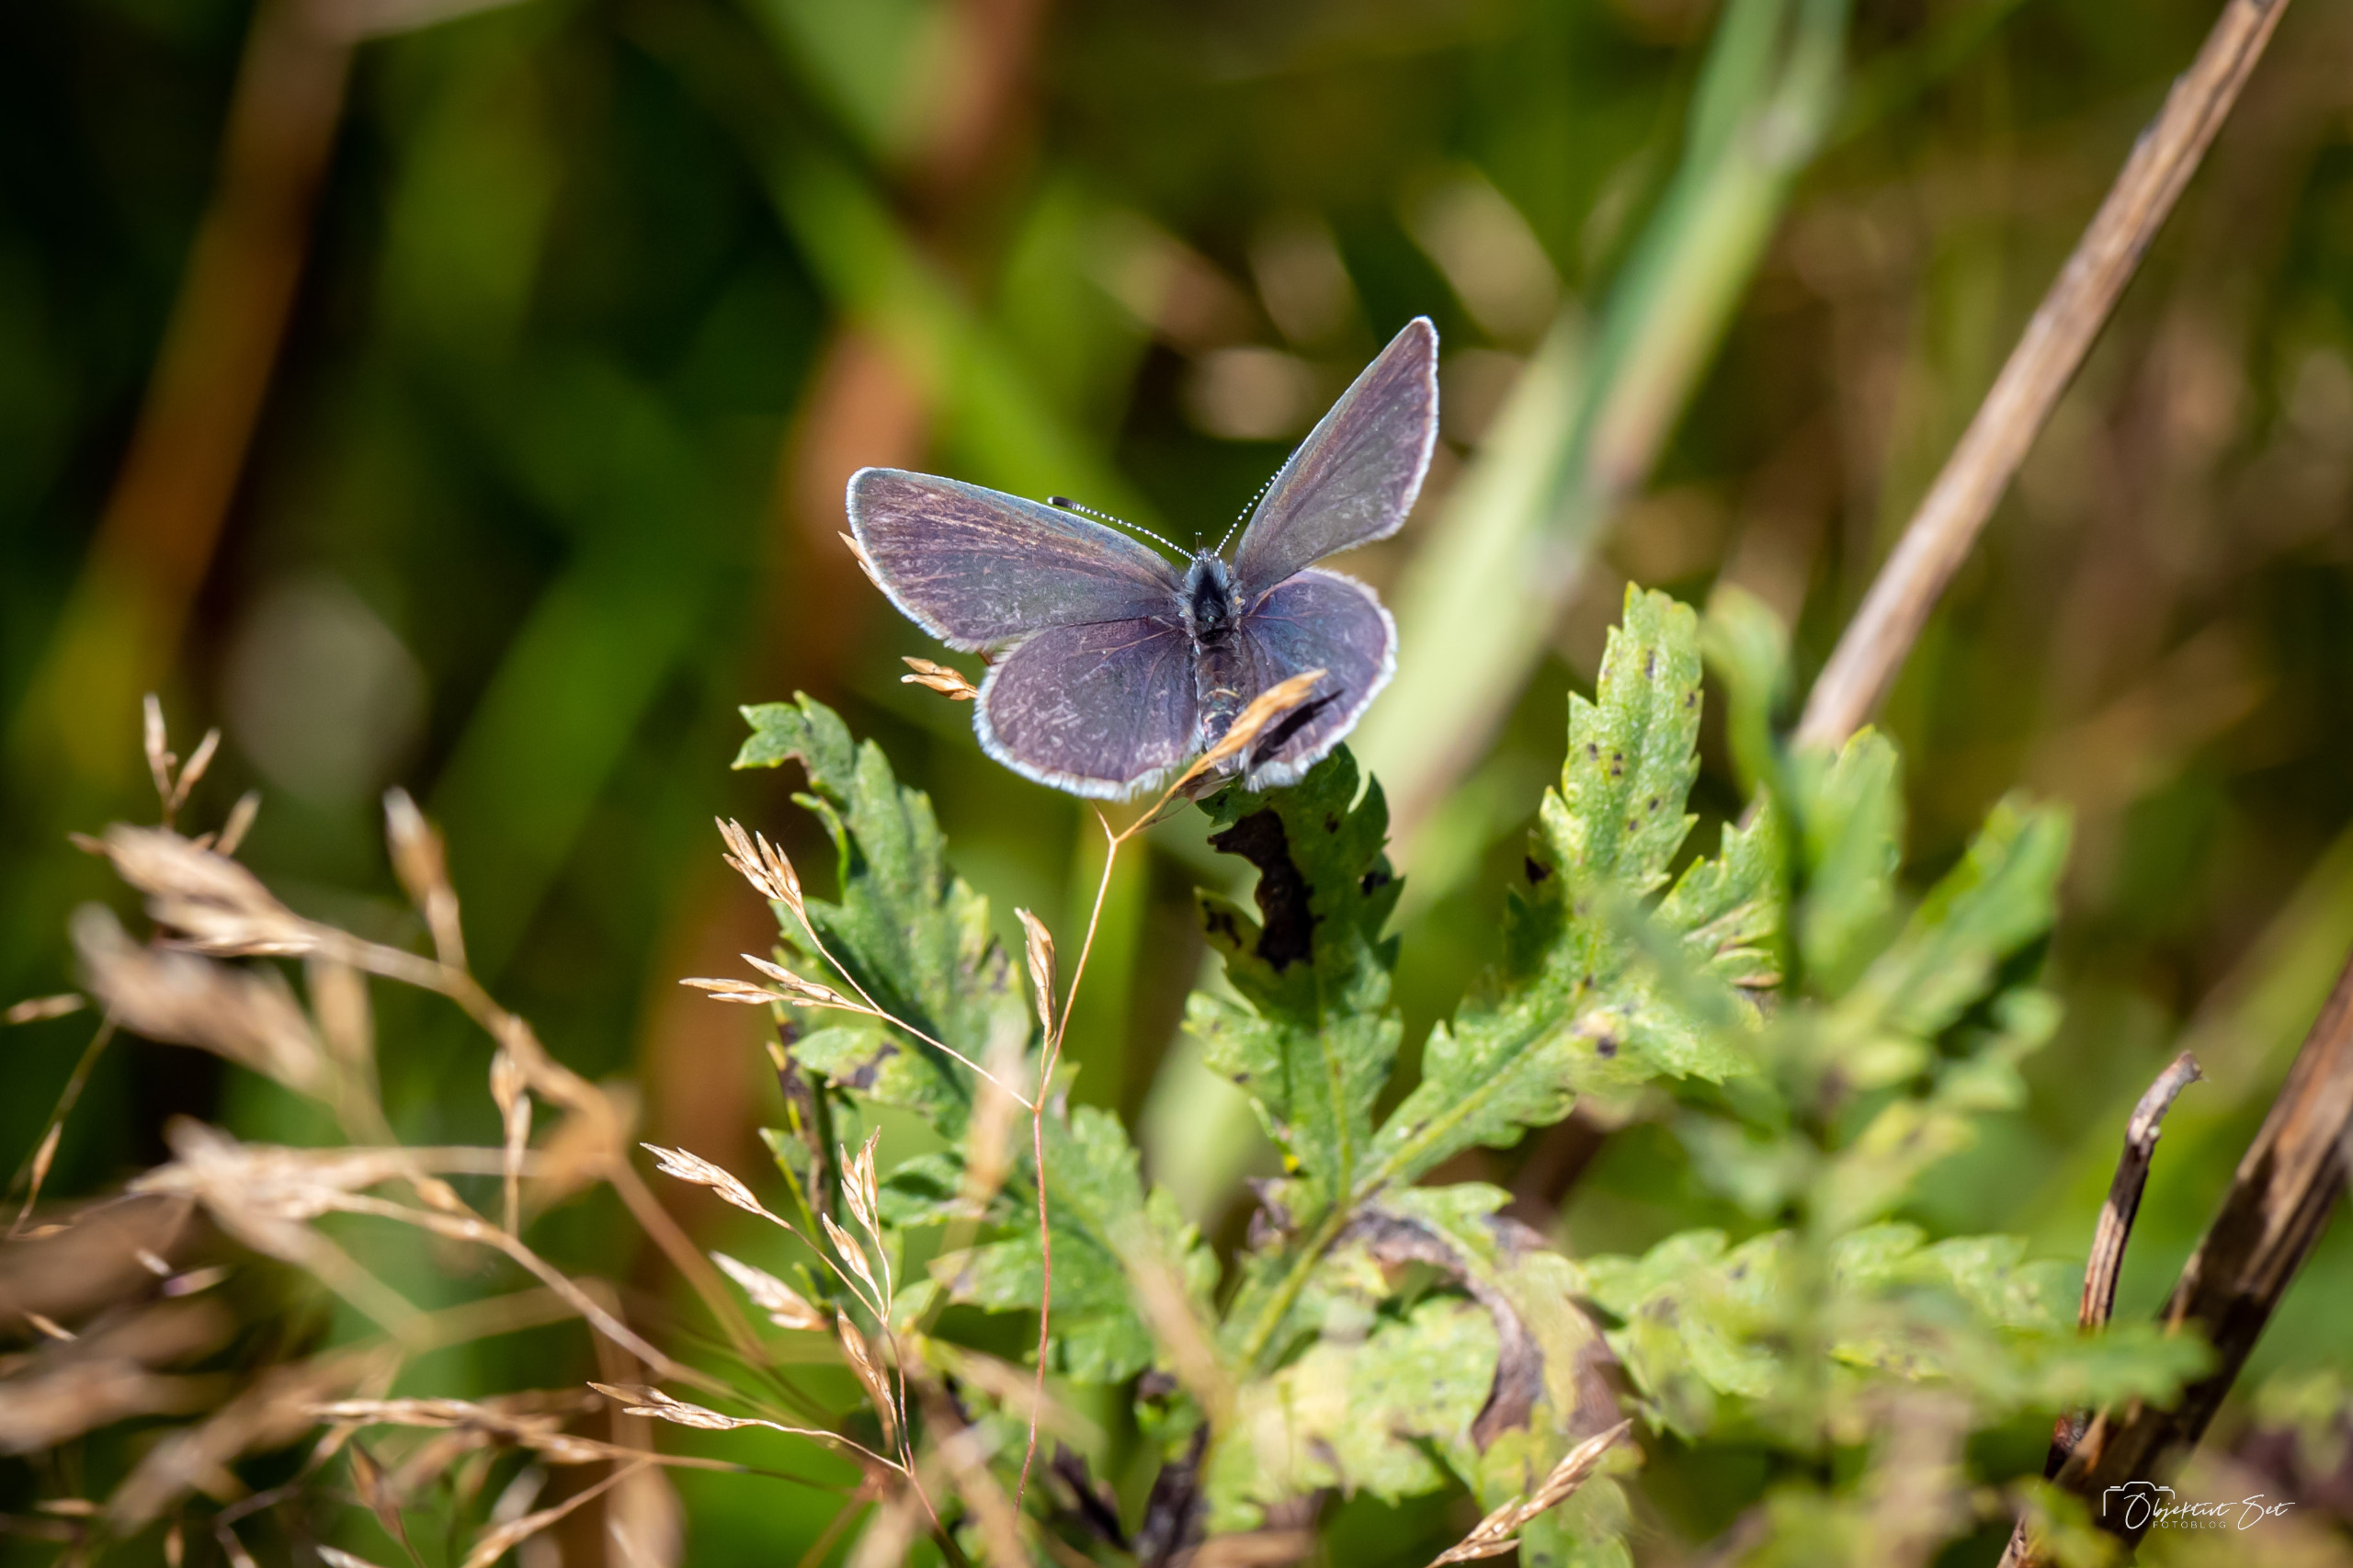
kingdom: Animalia
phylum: Arthropoda
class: Insecta
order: Lepidoptera
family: Lycaenidae
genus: Cupido
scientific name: Cupido minimus
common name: Dværgblåfugl
